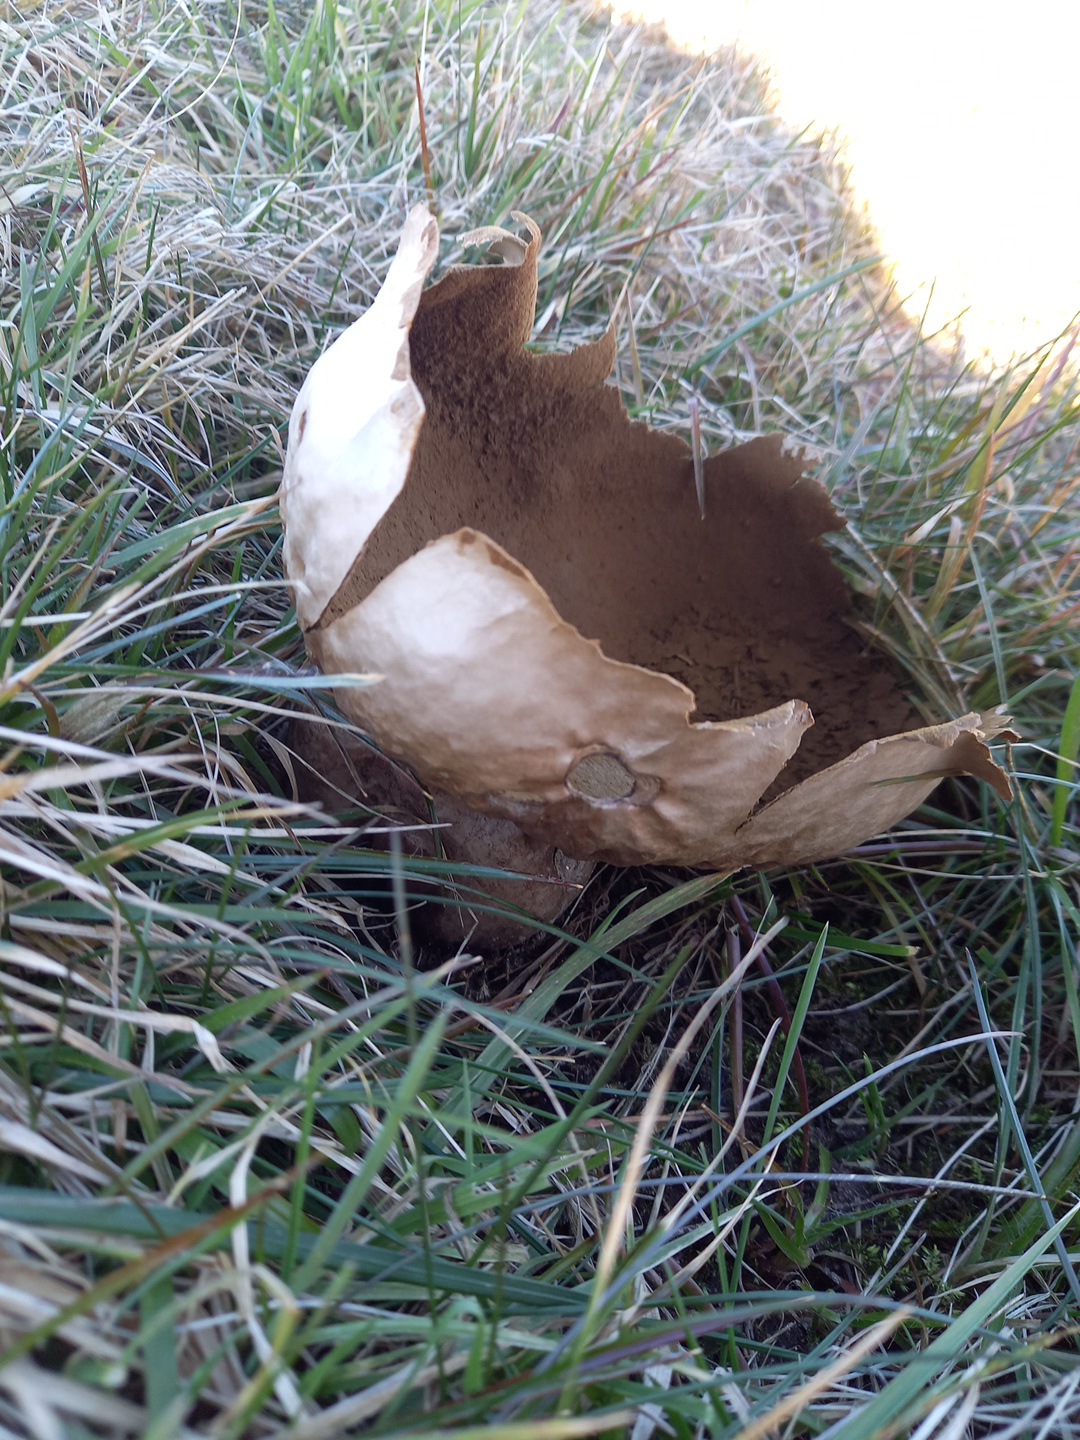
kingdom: Fungi
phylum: Basidiomycota
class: Agaricomycetes
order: Agaricales
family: Lycoperdaceae
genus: Bovistella
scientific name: Bovistella utriformis
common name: skællet støvbold
